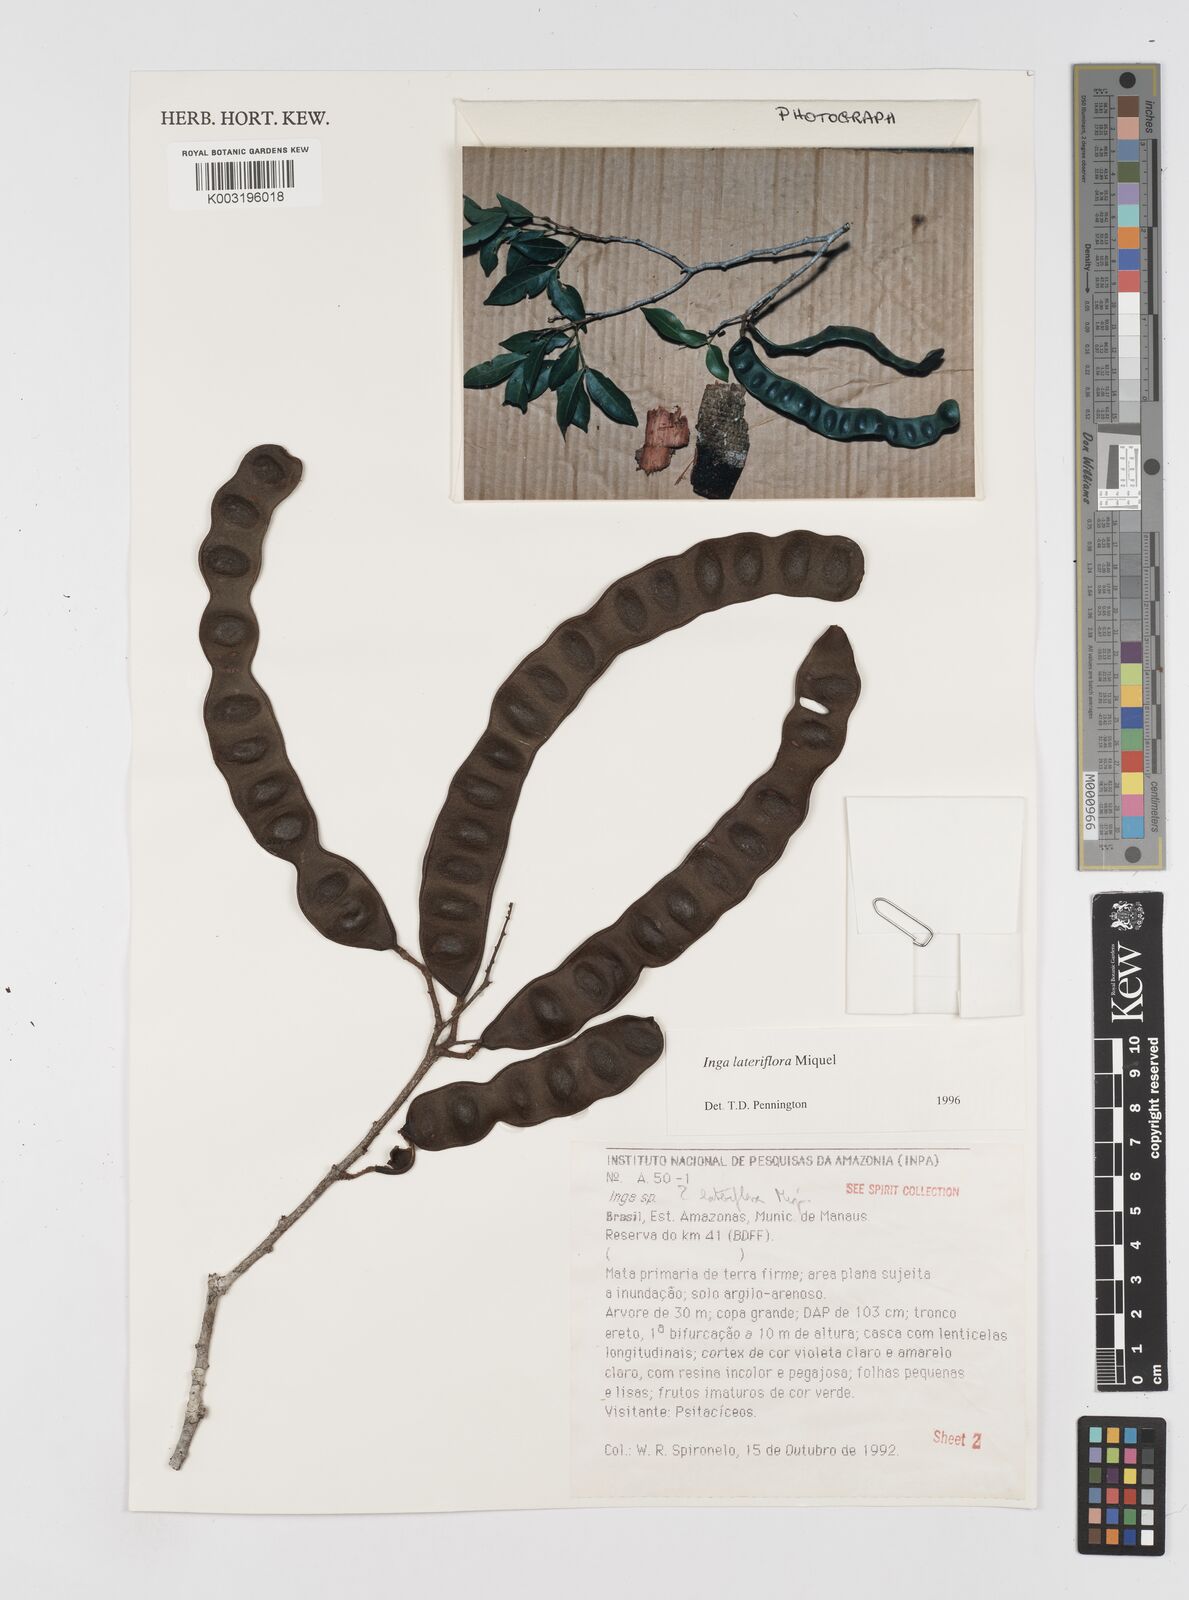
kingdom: Plantae
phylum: Tracheophyta
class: Magnoliopsida
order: Fabales
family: Fabaceae
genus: Inga
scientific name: Inga lateriflora
